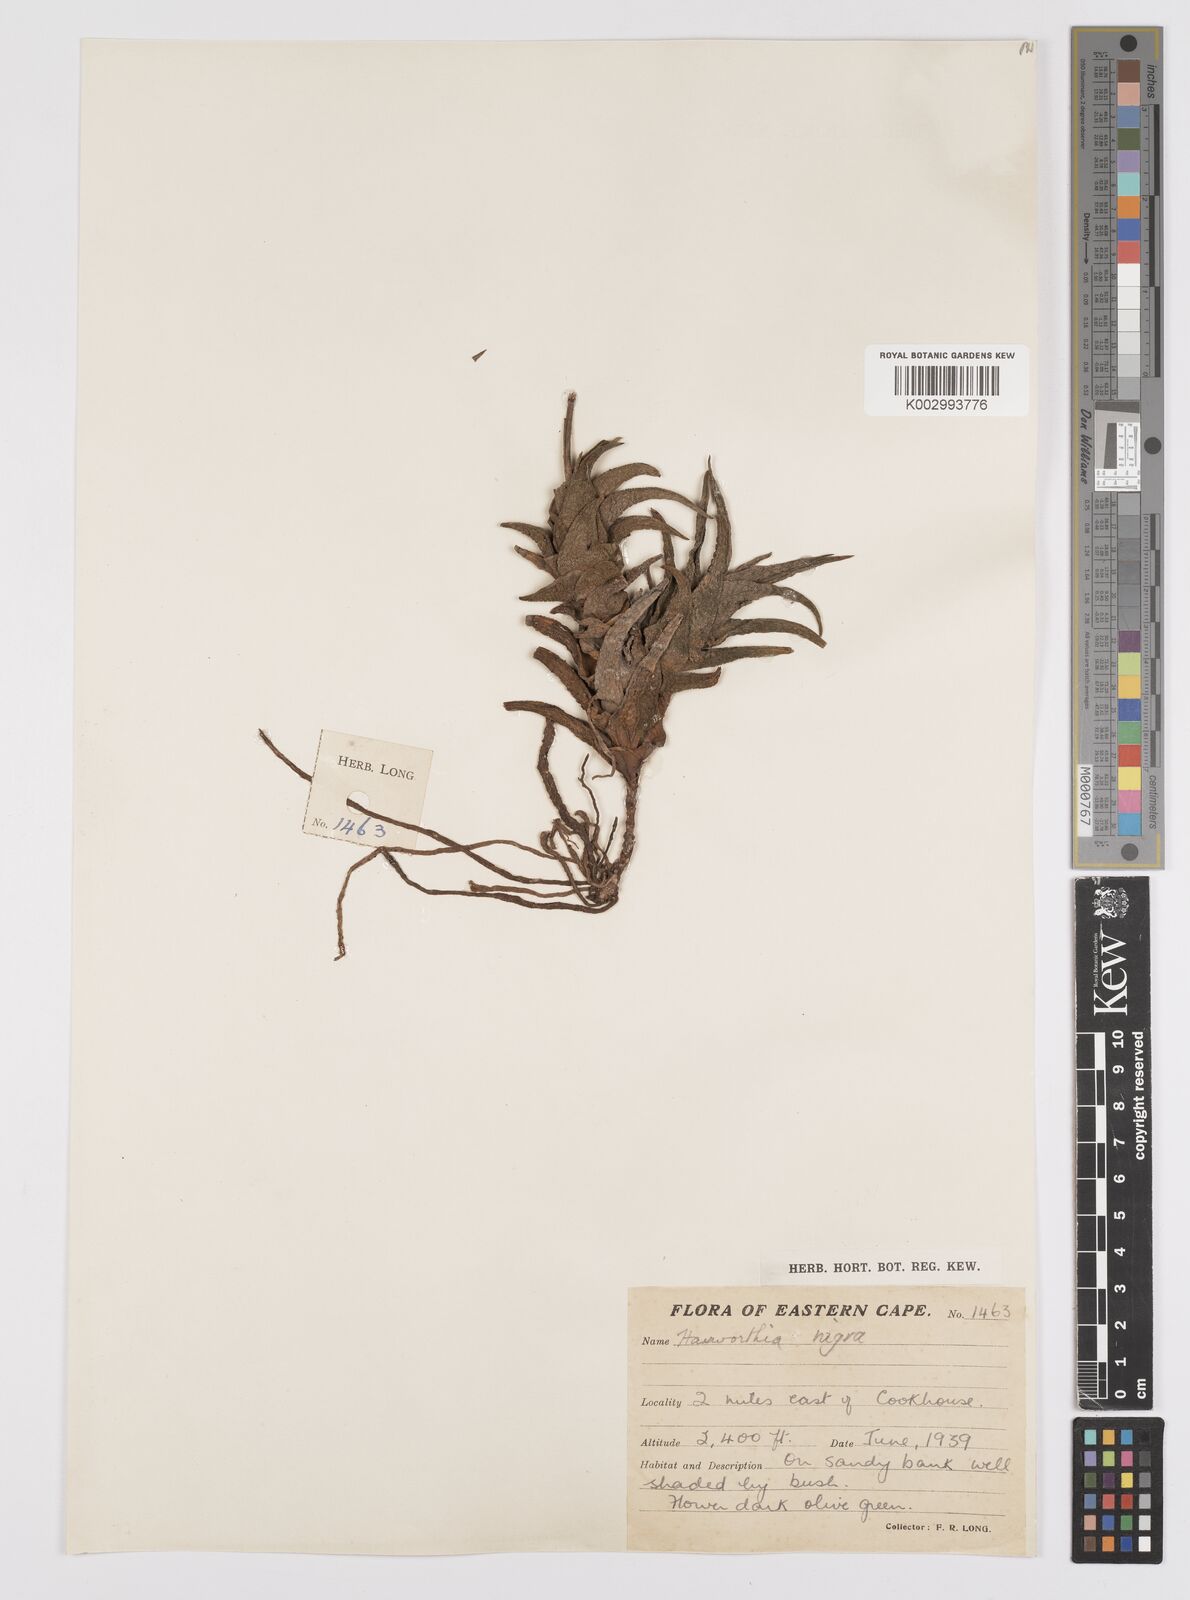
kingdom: Plantae
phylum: Tracheophyta
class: Liliopsida
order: Asparagales
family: Asphodelaceae
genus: Haworthiopsis
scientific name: Haworthiopsis nigra
